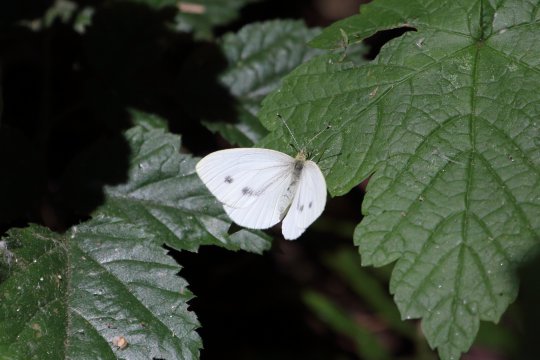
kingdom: Animalia
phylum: Arthropoda
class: Insecta
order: Lepidoptera
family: Pieridae
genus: Pieris
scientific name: Pieris marginalis
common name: Margined White
